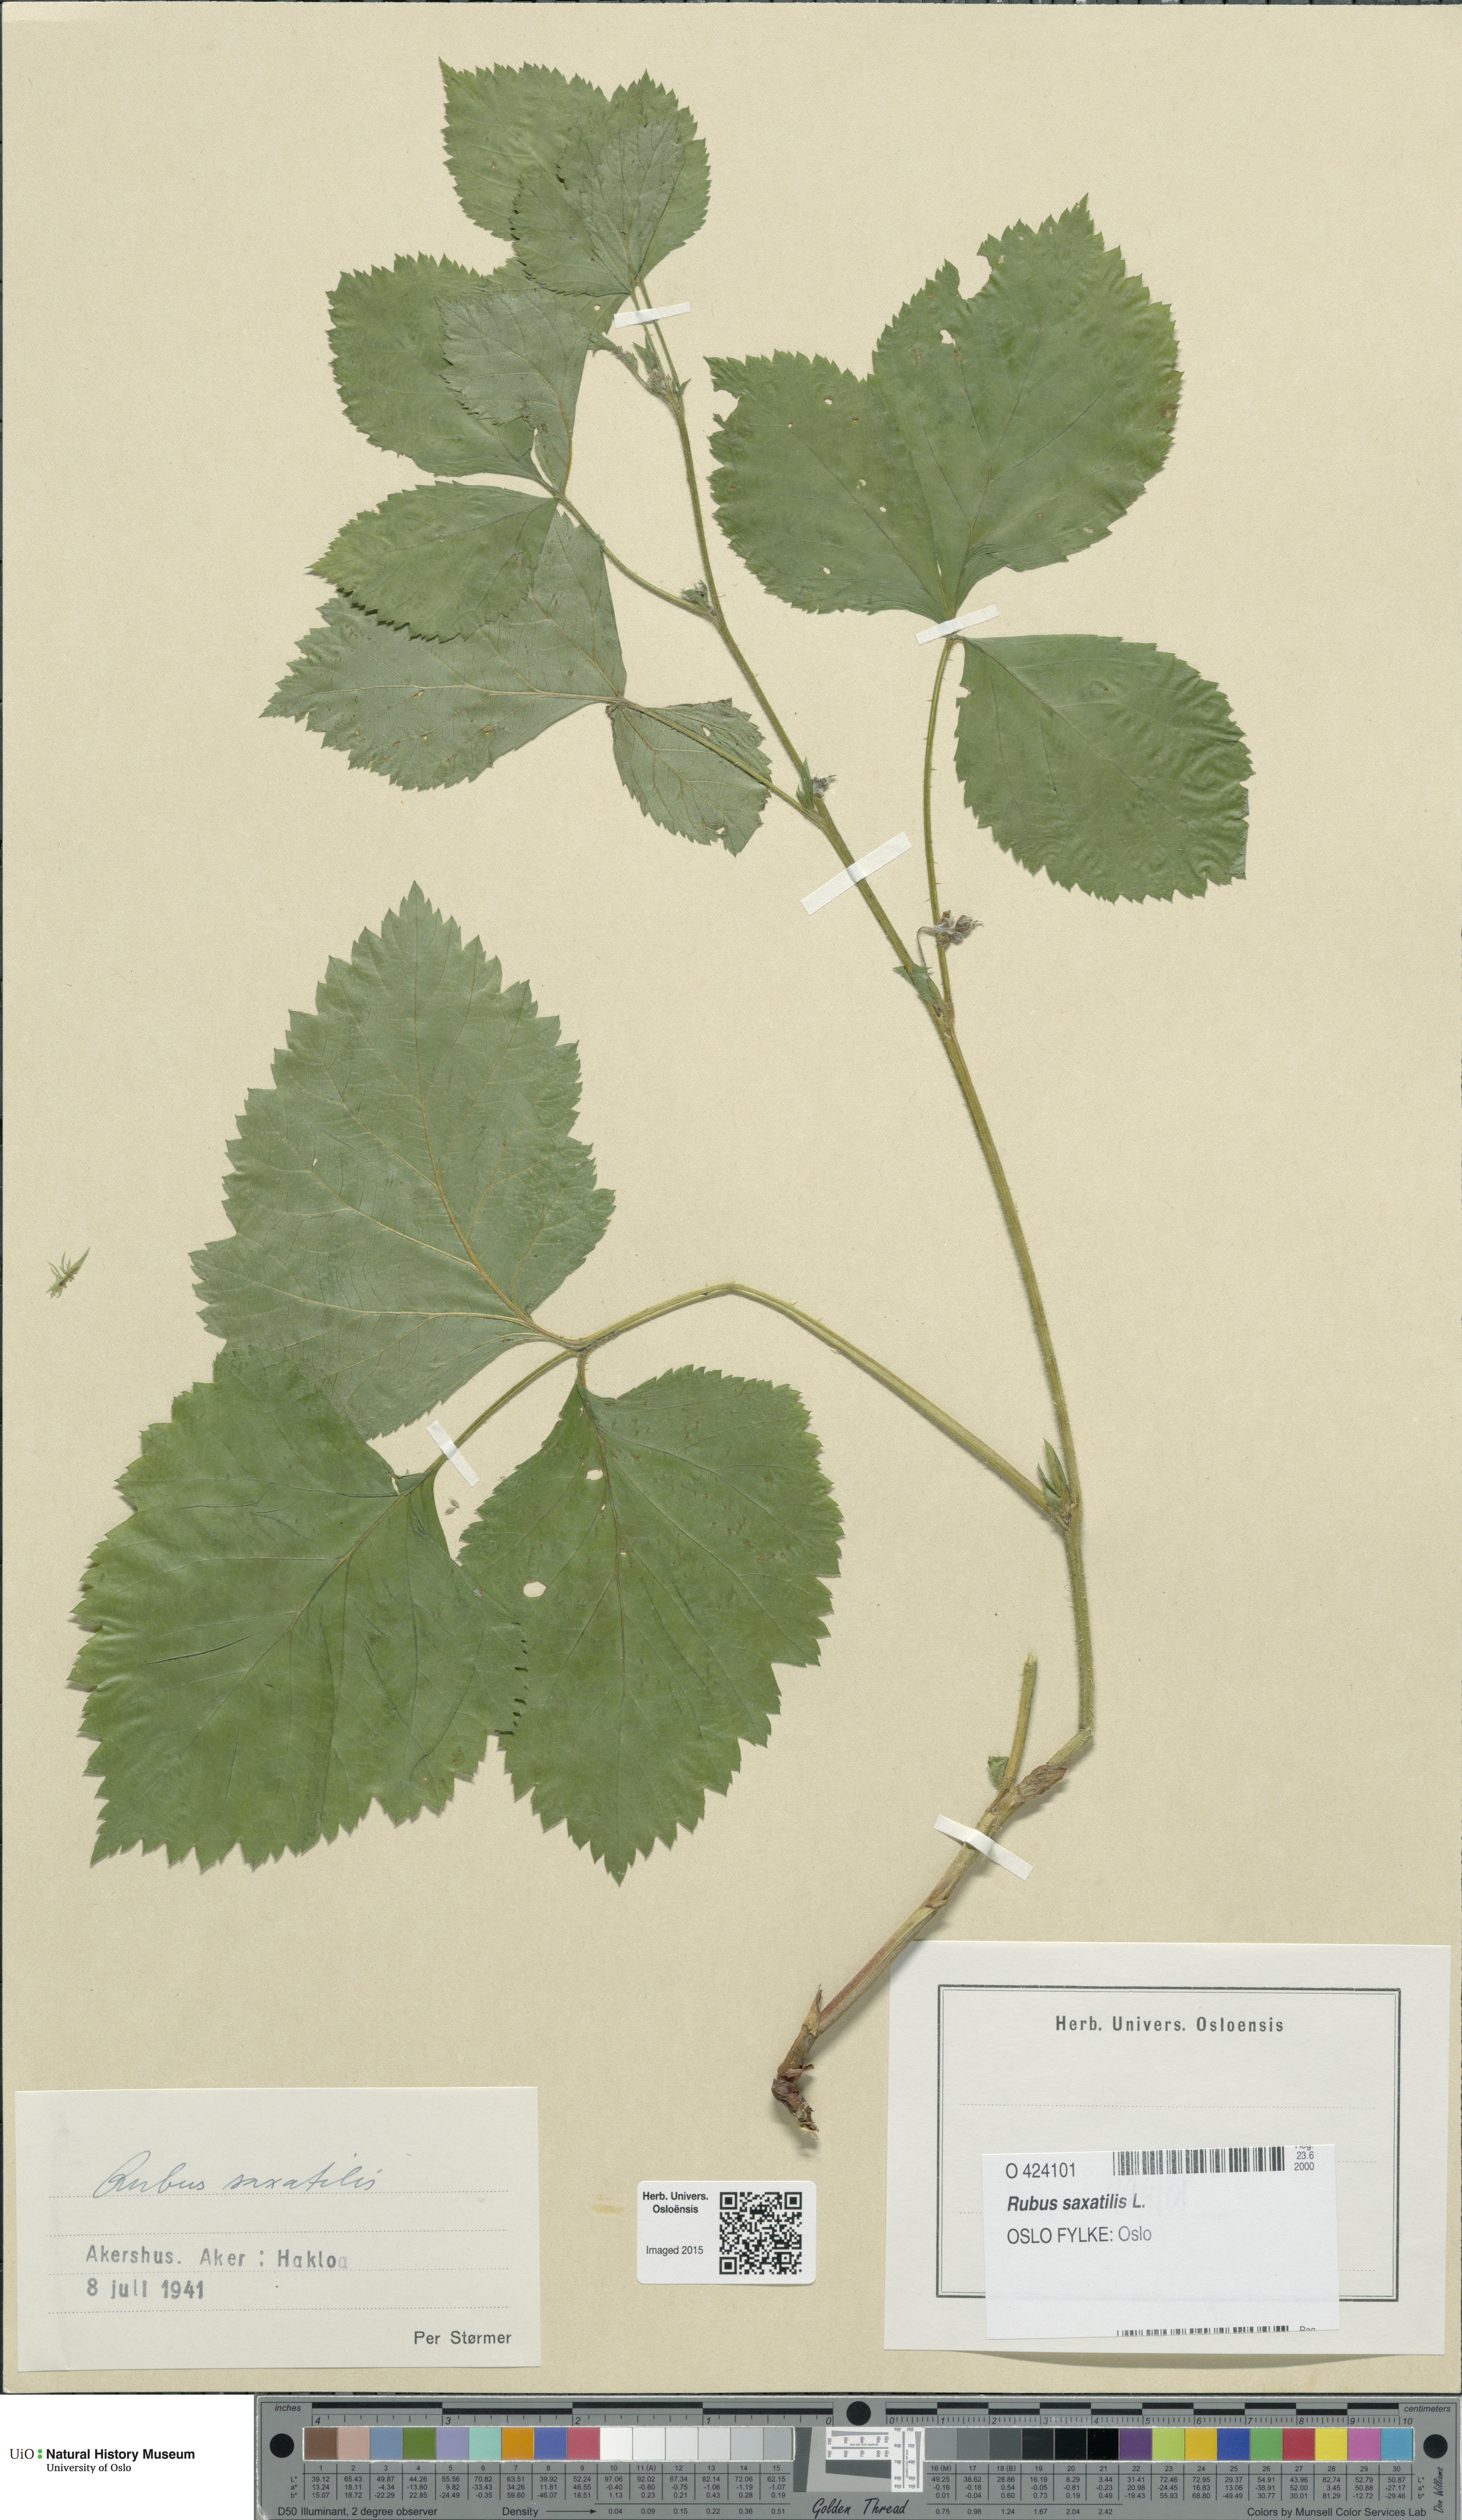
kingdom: Plantae
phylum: Tracheophyta
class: Magnoliopsida
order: Rosales
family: Rosaceae
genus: Rubus
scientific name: Rubus saxatilis
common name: Stone bramble
